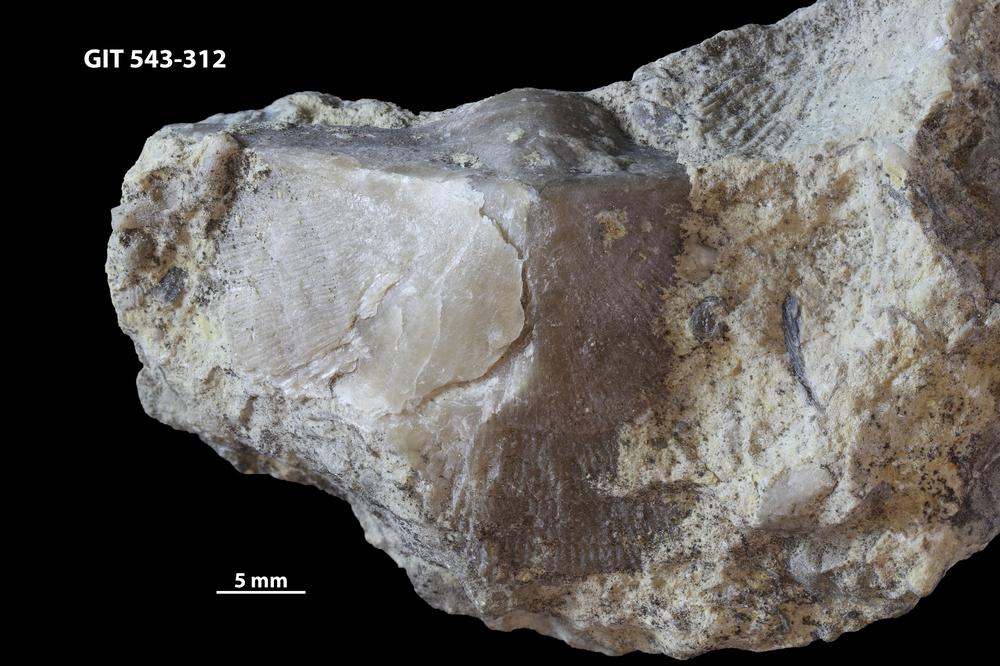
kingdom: Animalia
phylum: Brachiopoda
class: Rhynchonellata
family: Clitambonitidae
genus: Ilmarinia
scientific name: Ilmarinia dimorpha
